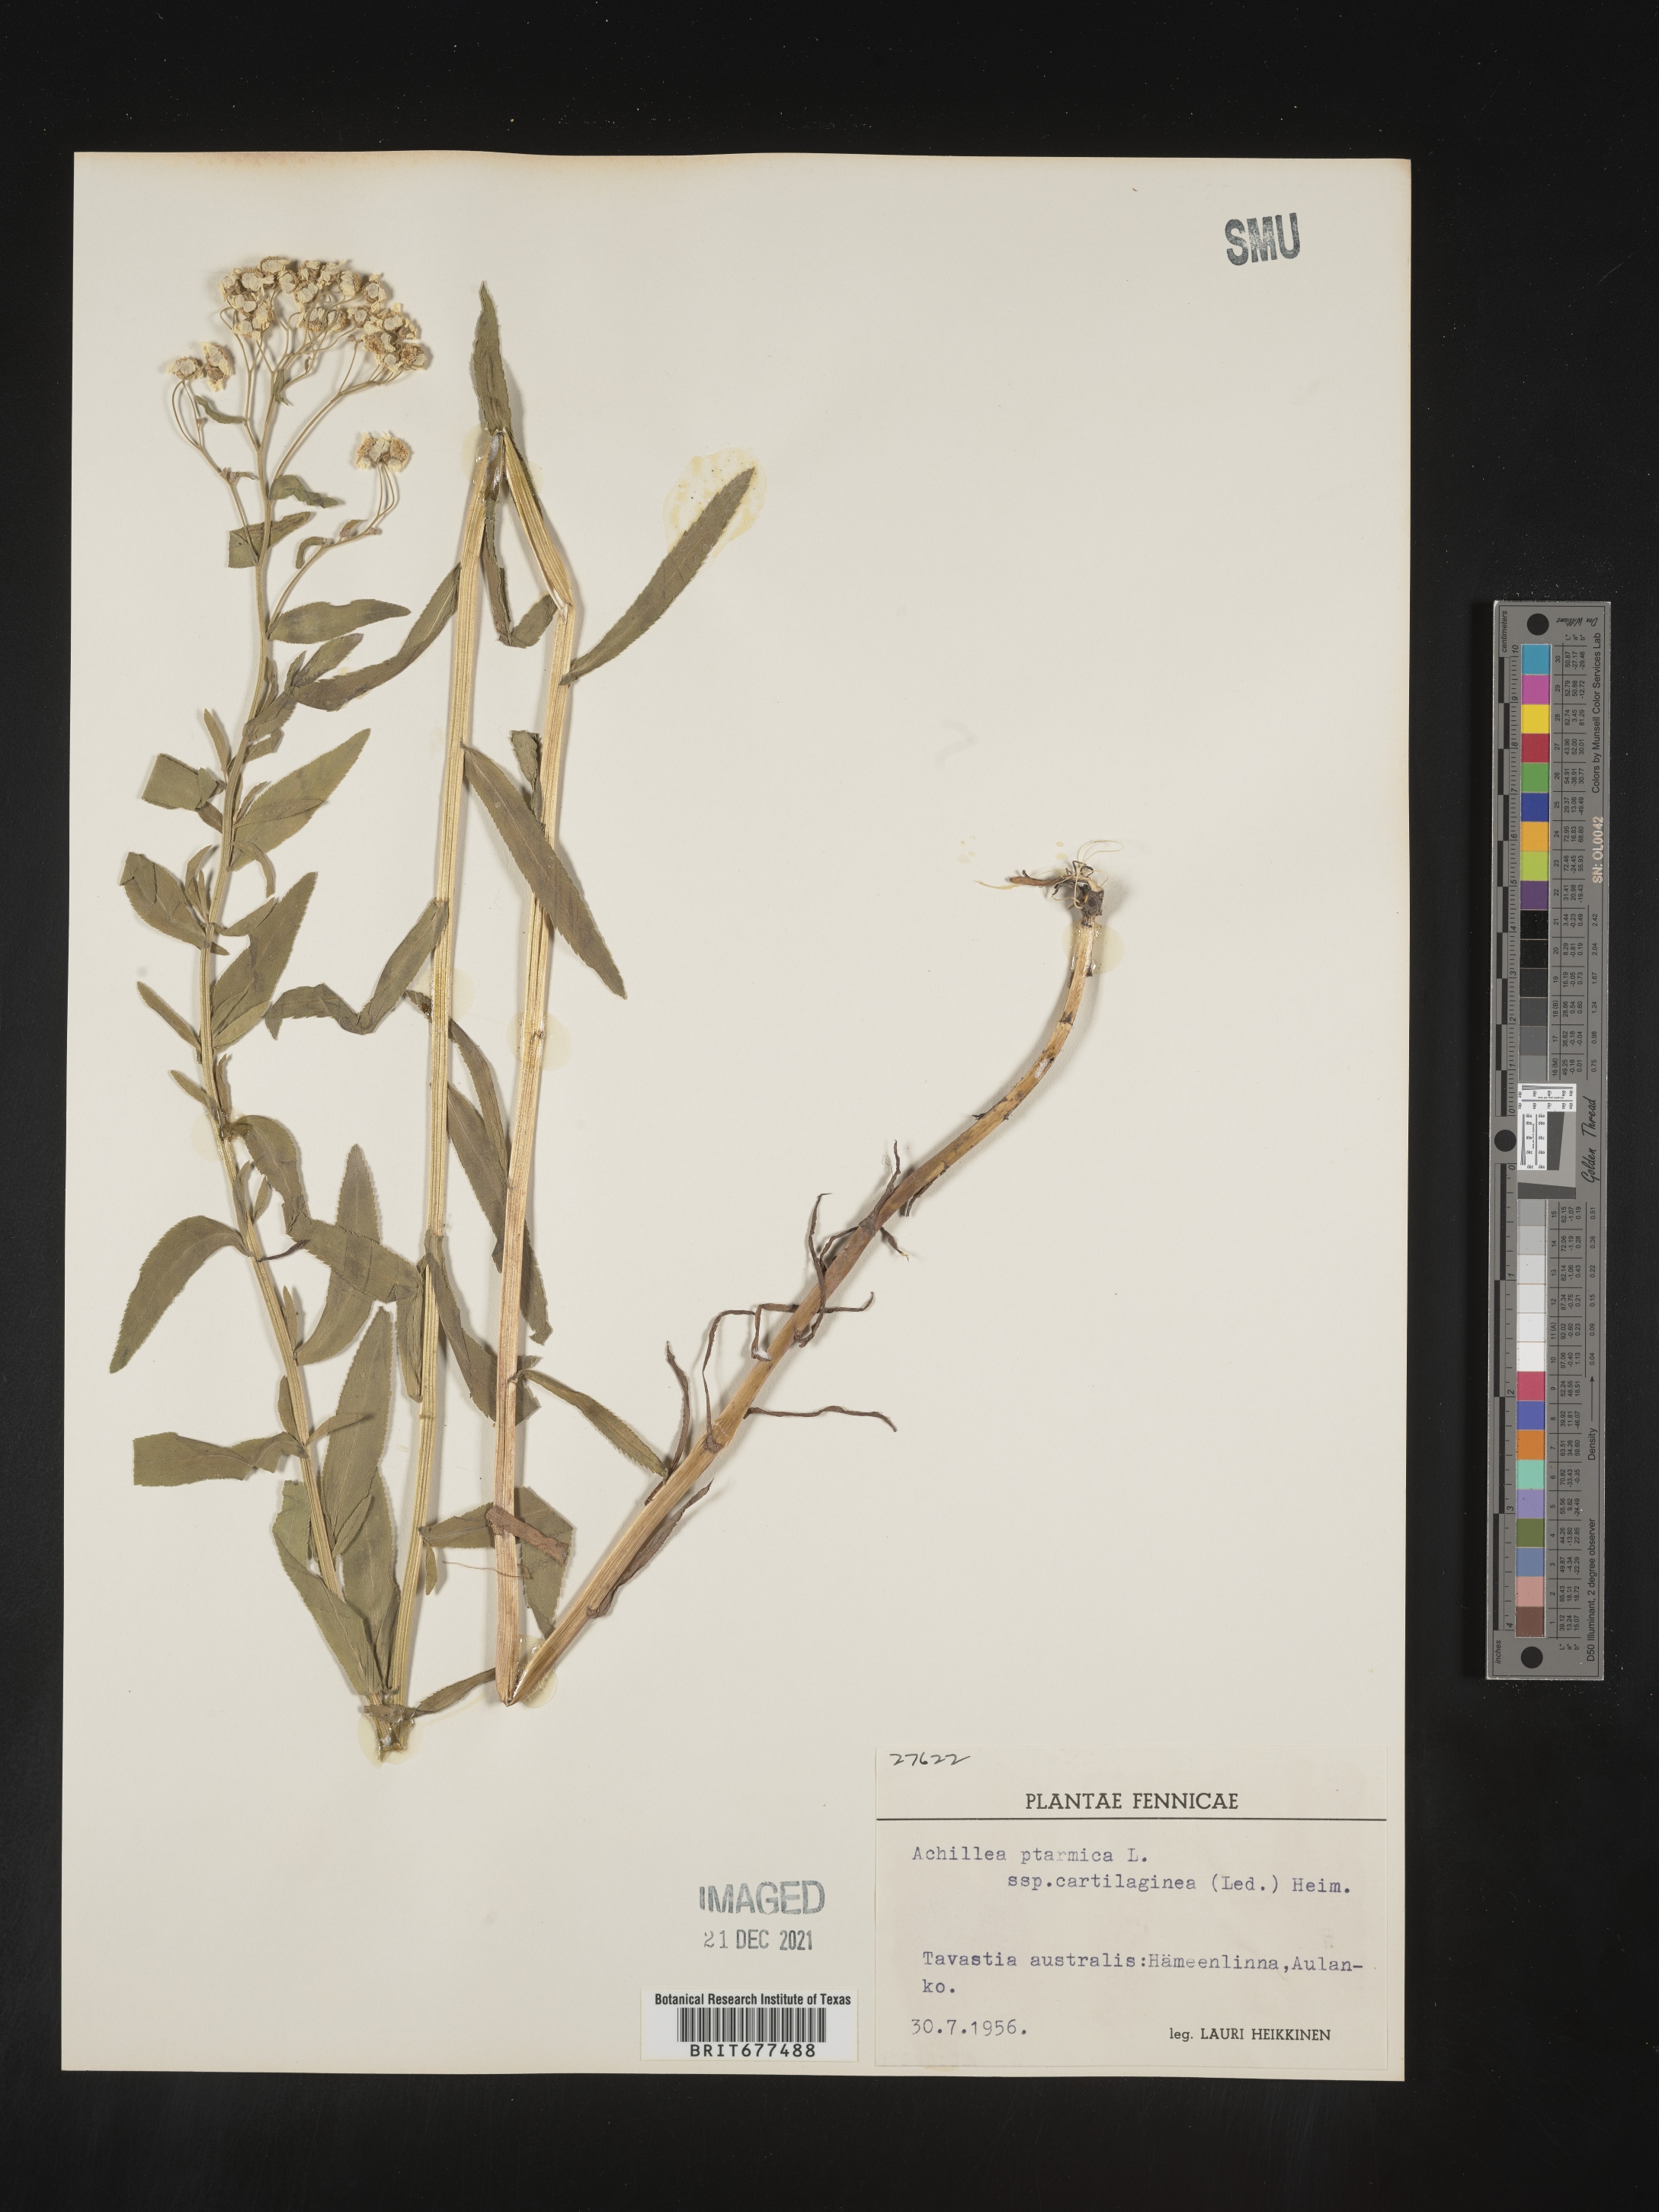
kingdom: Plantae
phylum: Tracheophyta
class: Magnoliopsida
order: Asterales
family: Asteraceae
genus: Achillea
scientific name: Achillea ptarmica
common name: Sneezeweed
